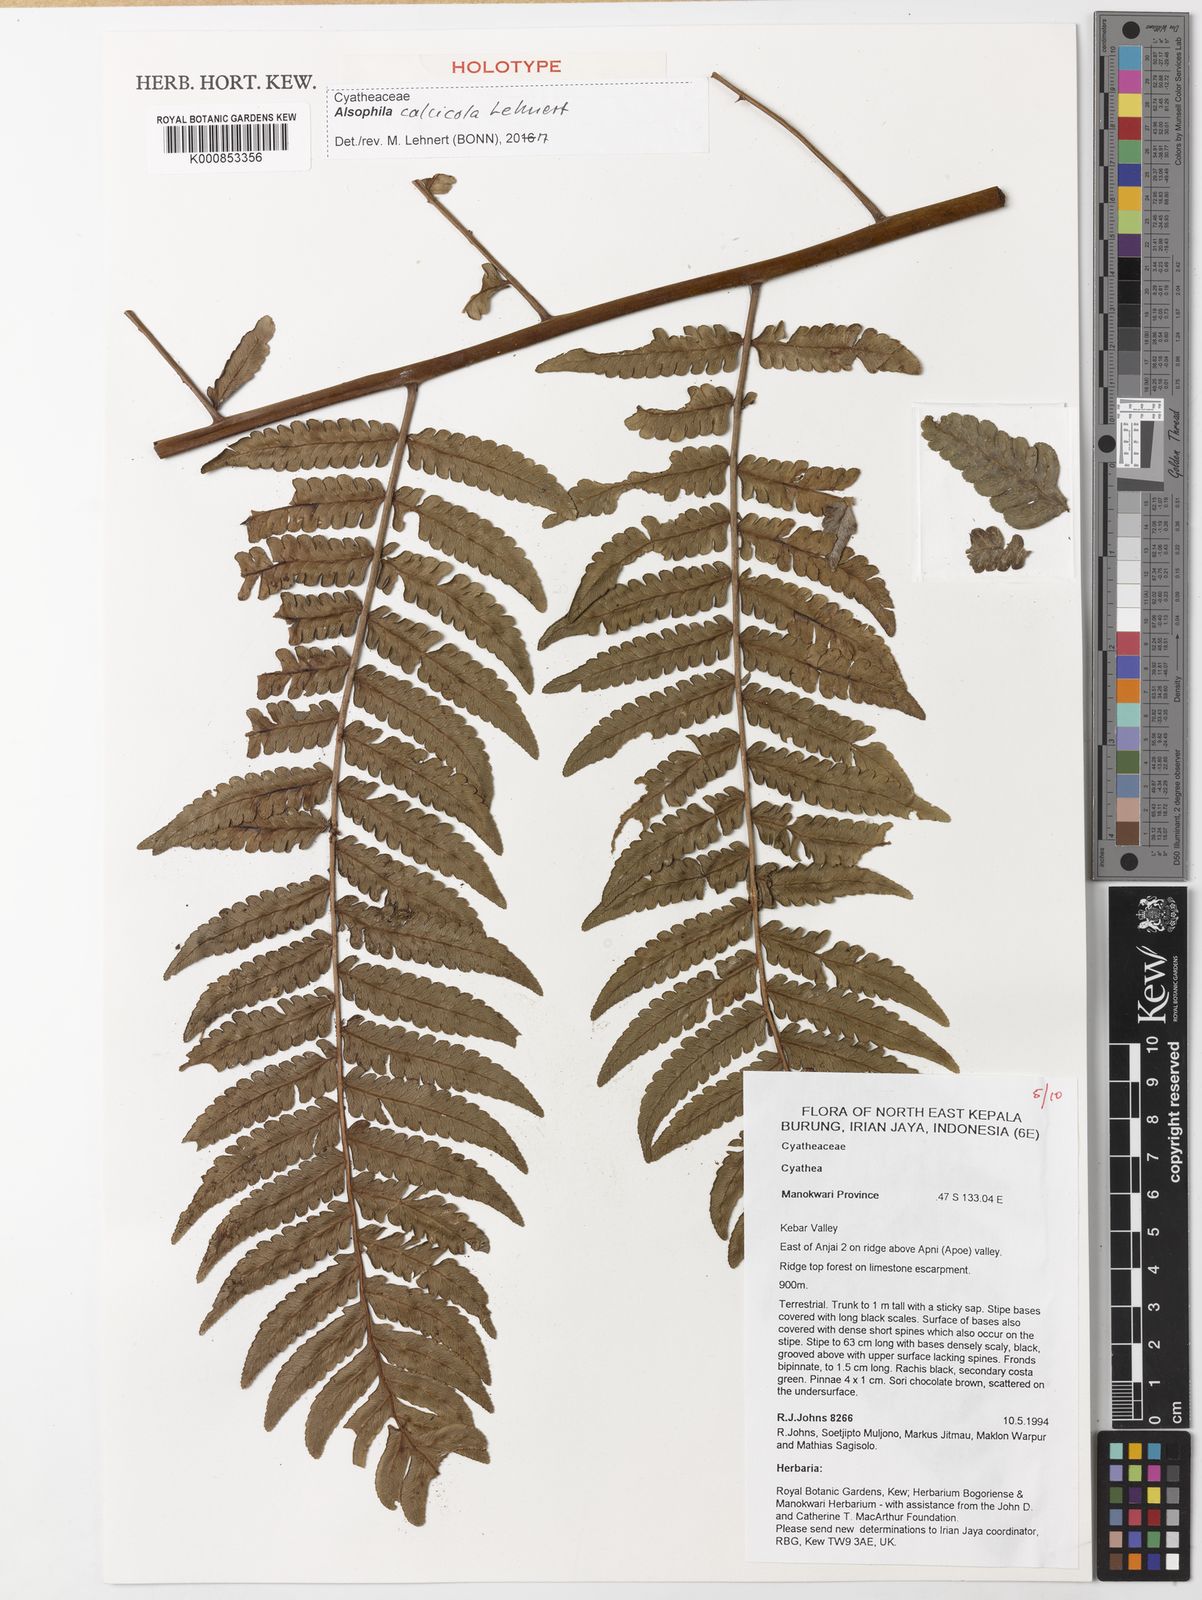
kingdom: Plantae
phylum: Tracheophyta
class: Polypodiopsida
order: Cyatheales
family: Cyatheaceae
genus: Alsophila
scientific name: Alsophila calcicola
